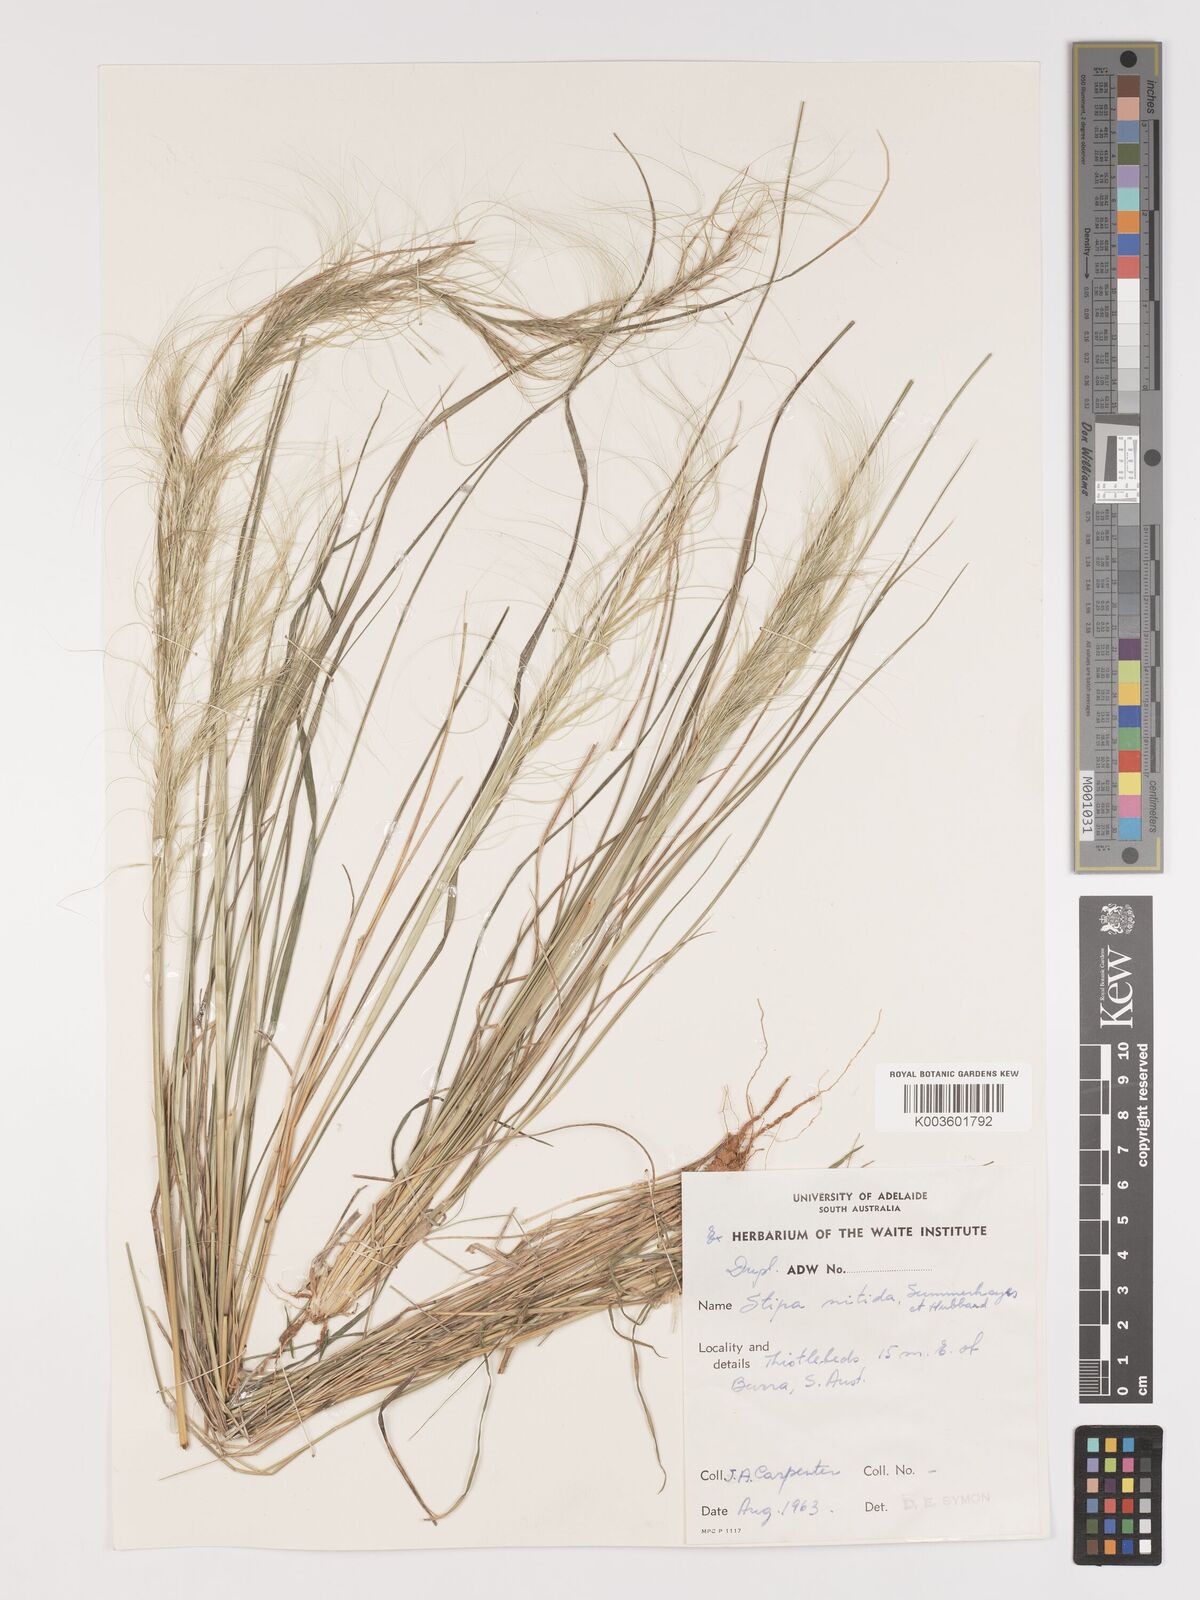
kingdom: Plantae
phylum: Tracheophyta
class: Liliopsida
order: Poales
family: Poaceae
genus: Austrostipa
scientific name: Austrostipa nitida
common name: Balcarra grass
